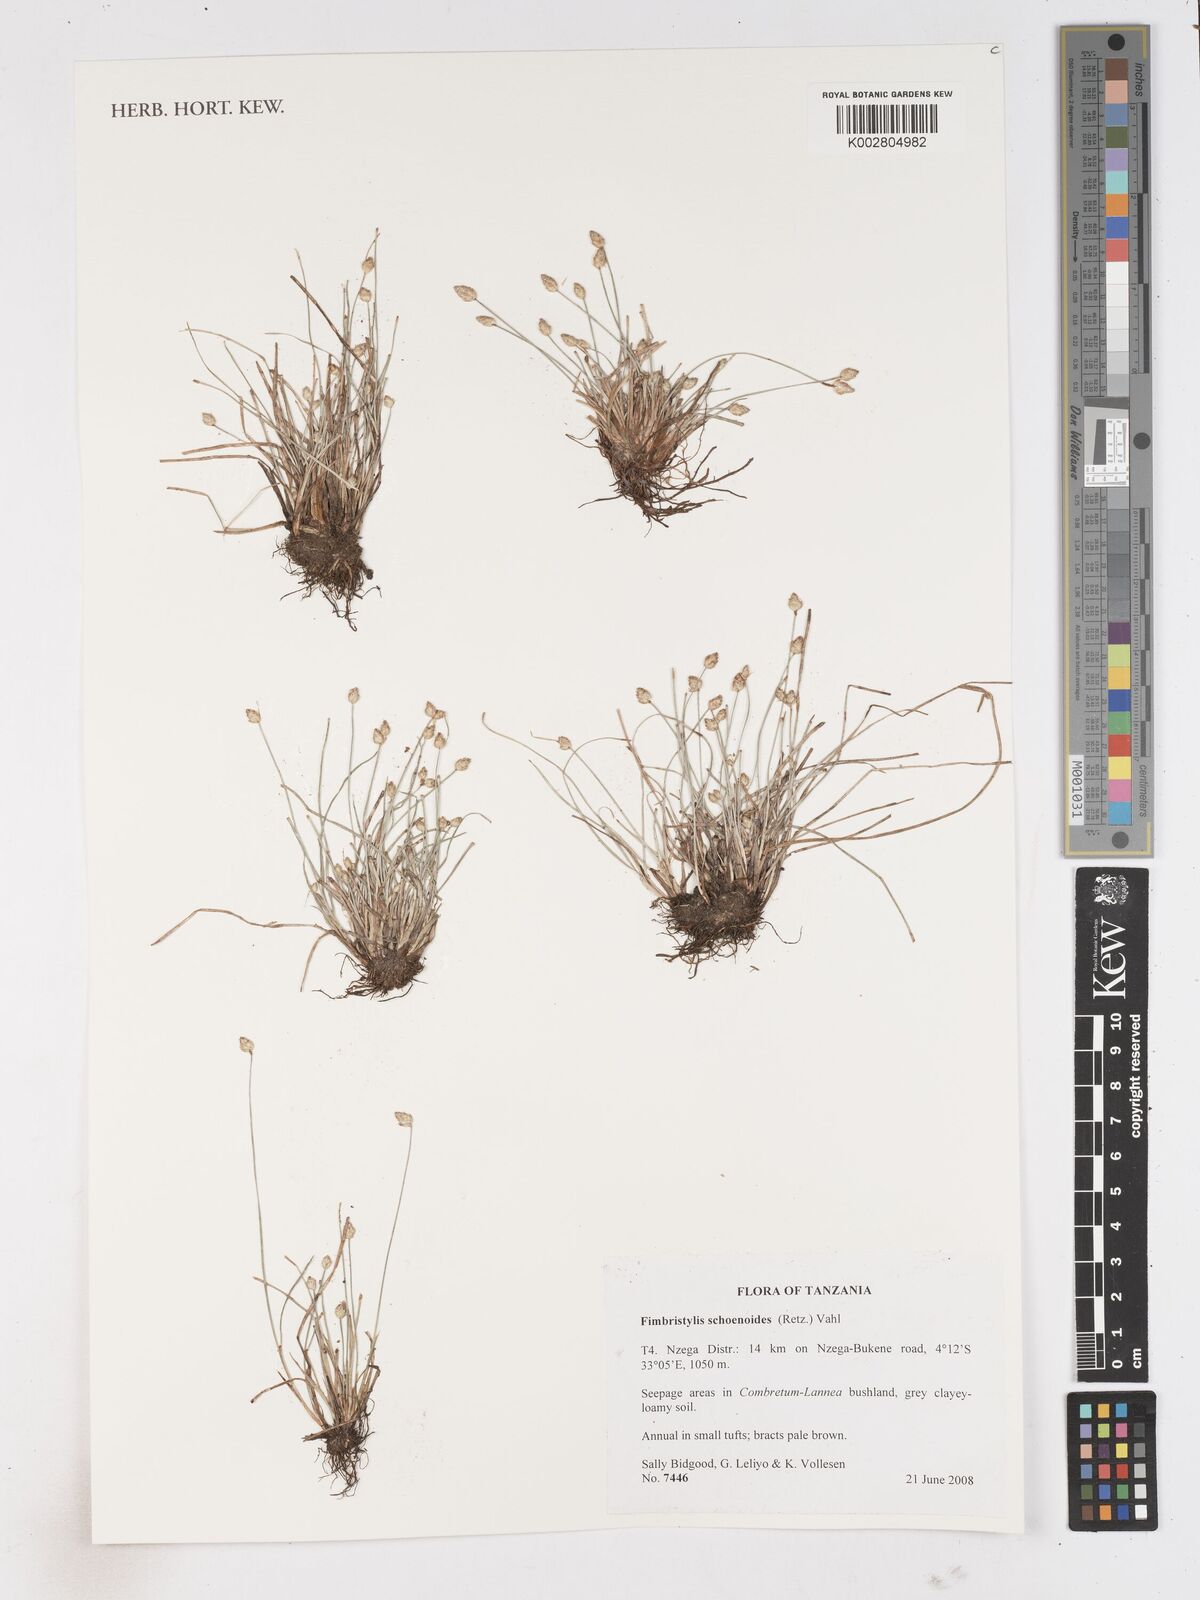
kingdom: Plantae
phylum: Tracheophyta
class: Liliopsida
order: Poales
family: Cyperaceae
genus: Fimbristylis
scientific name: Fimbristylis schoenoides
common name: Ditch fimbry
